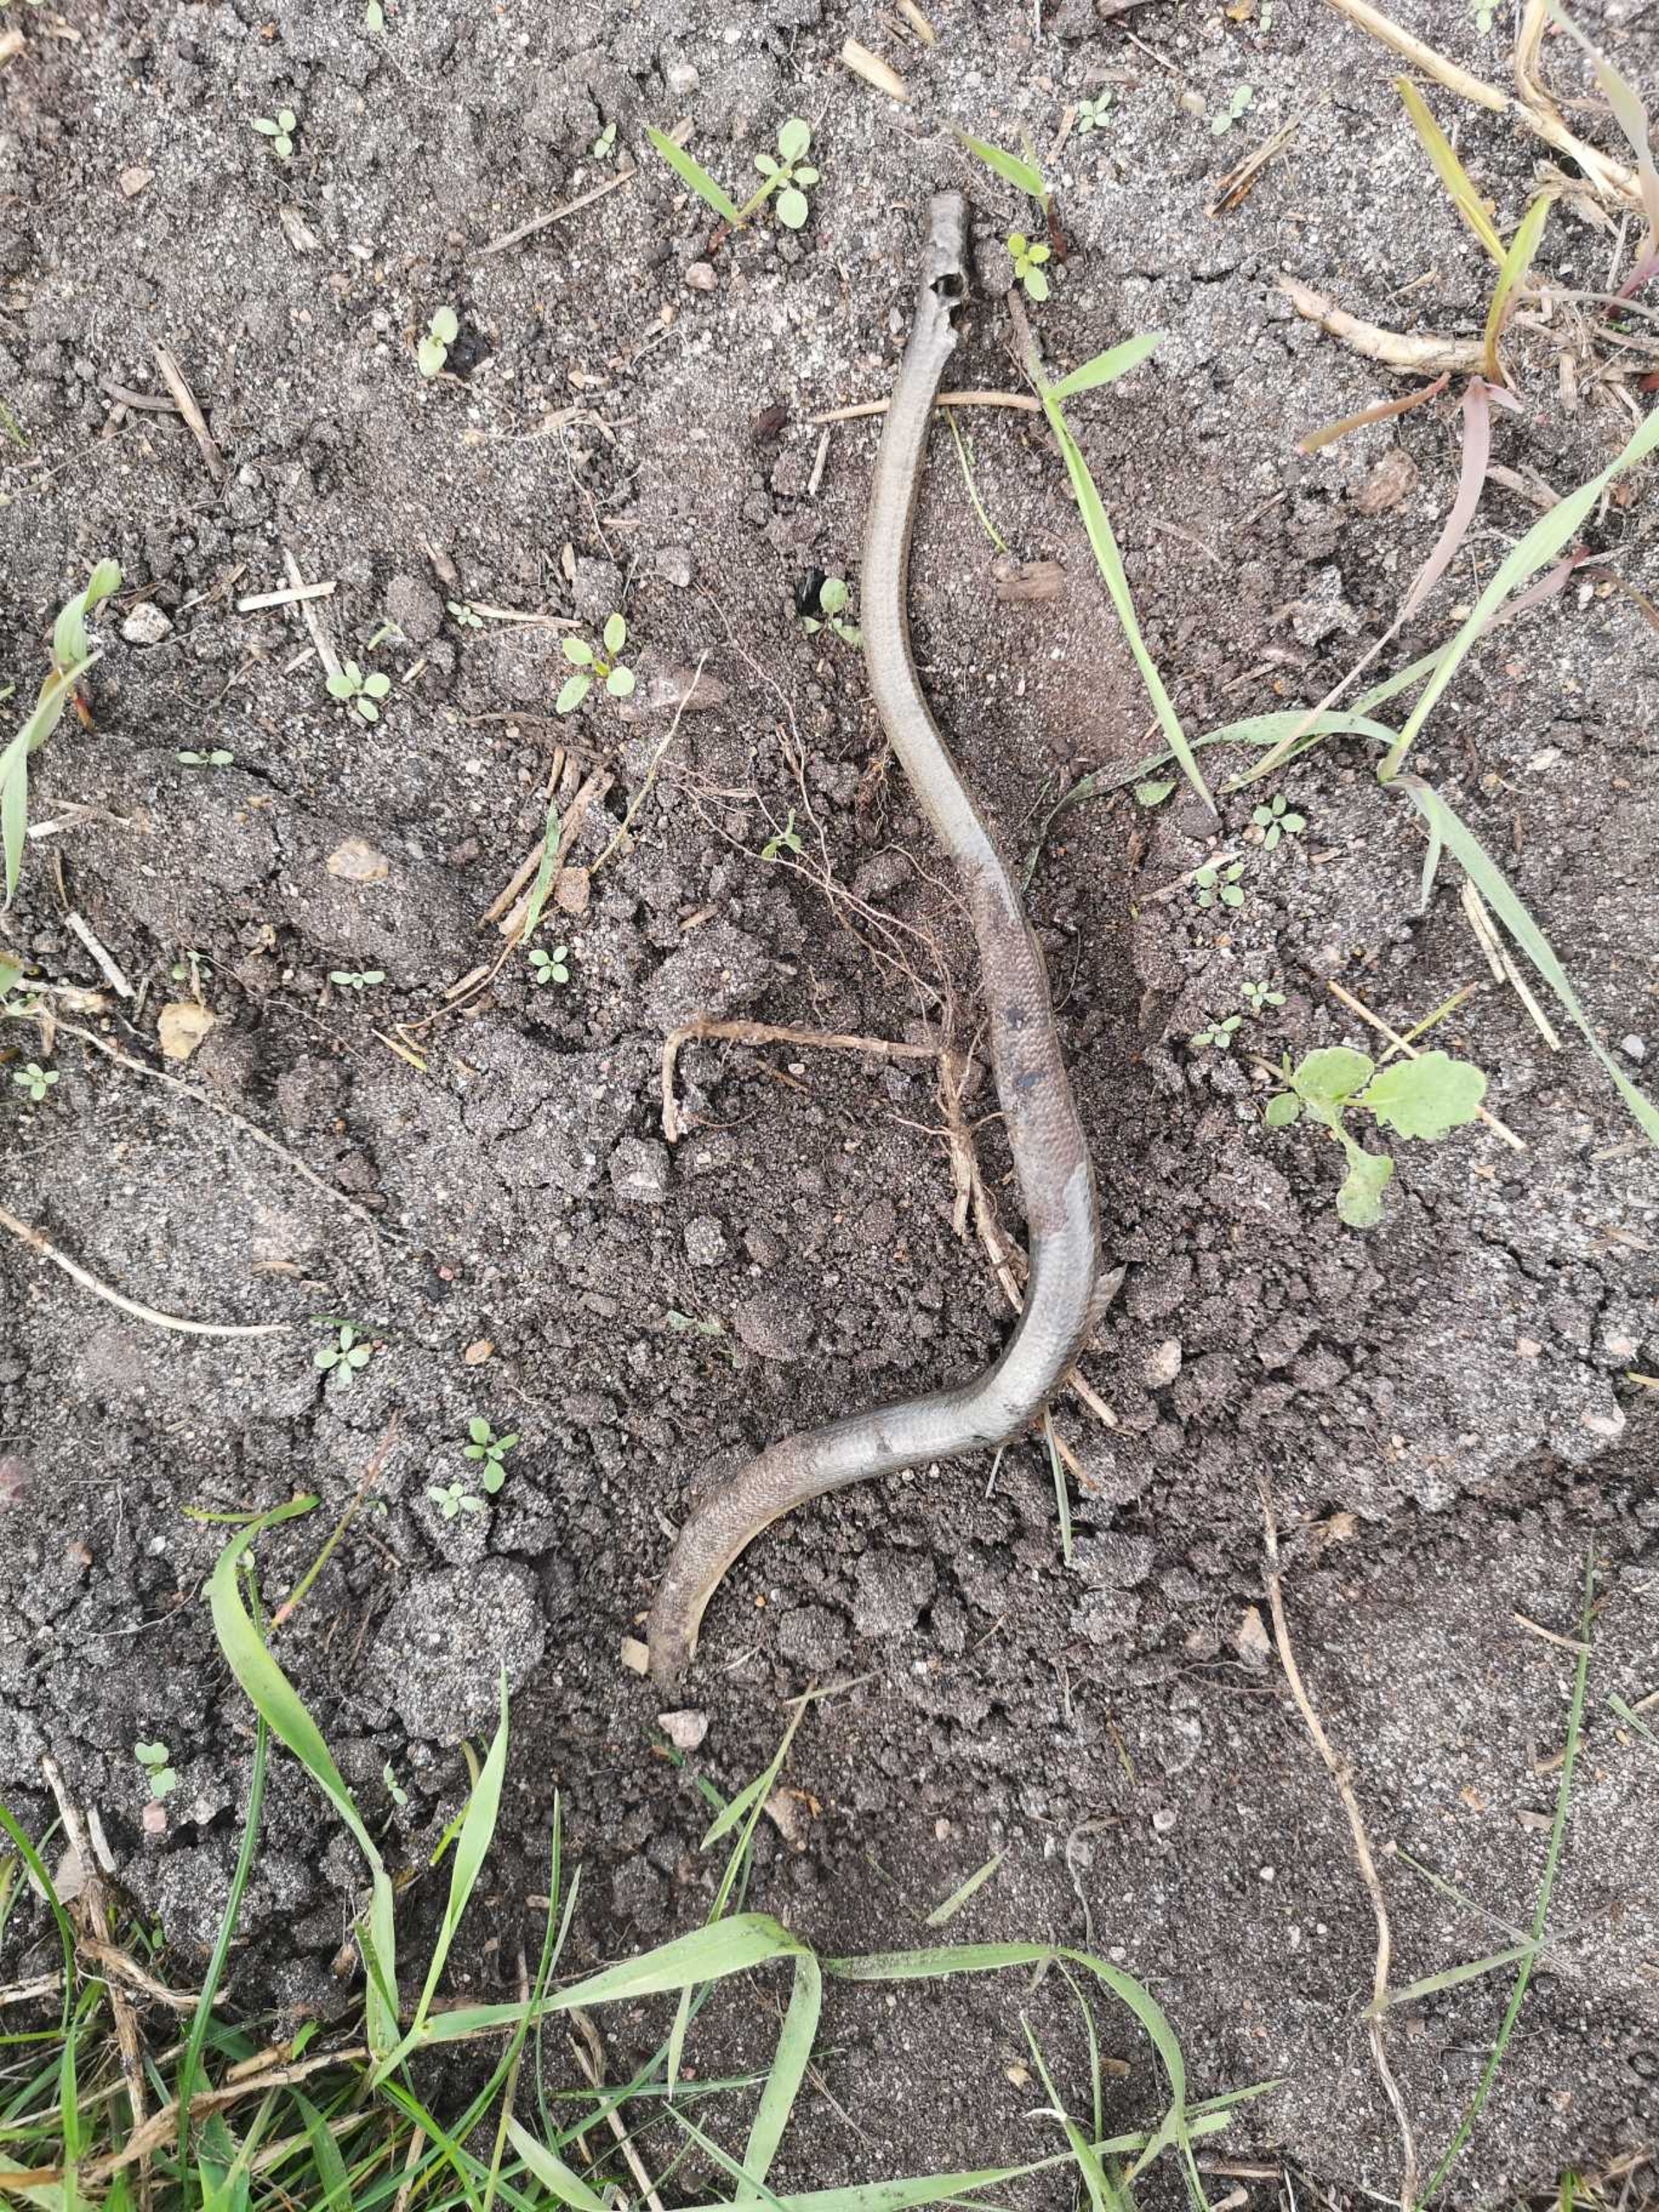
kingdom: Animalia
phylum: Chordata
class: Squamata
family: Anguidae
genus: Anguis
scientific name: Anguis fragilis
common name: Stålorm
